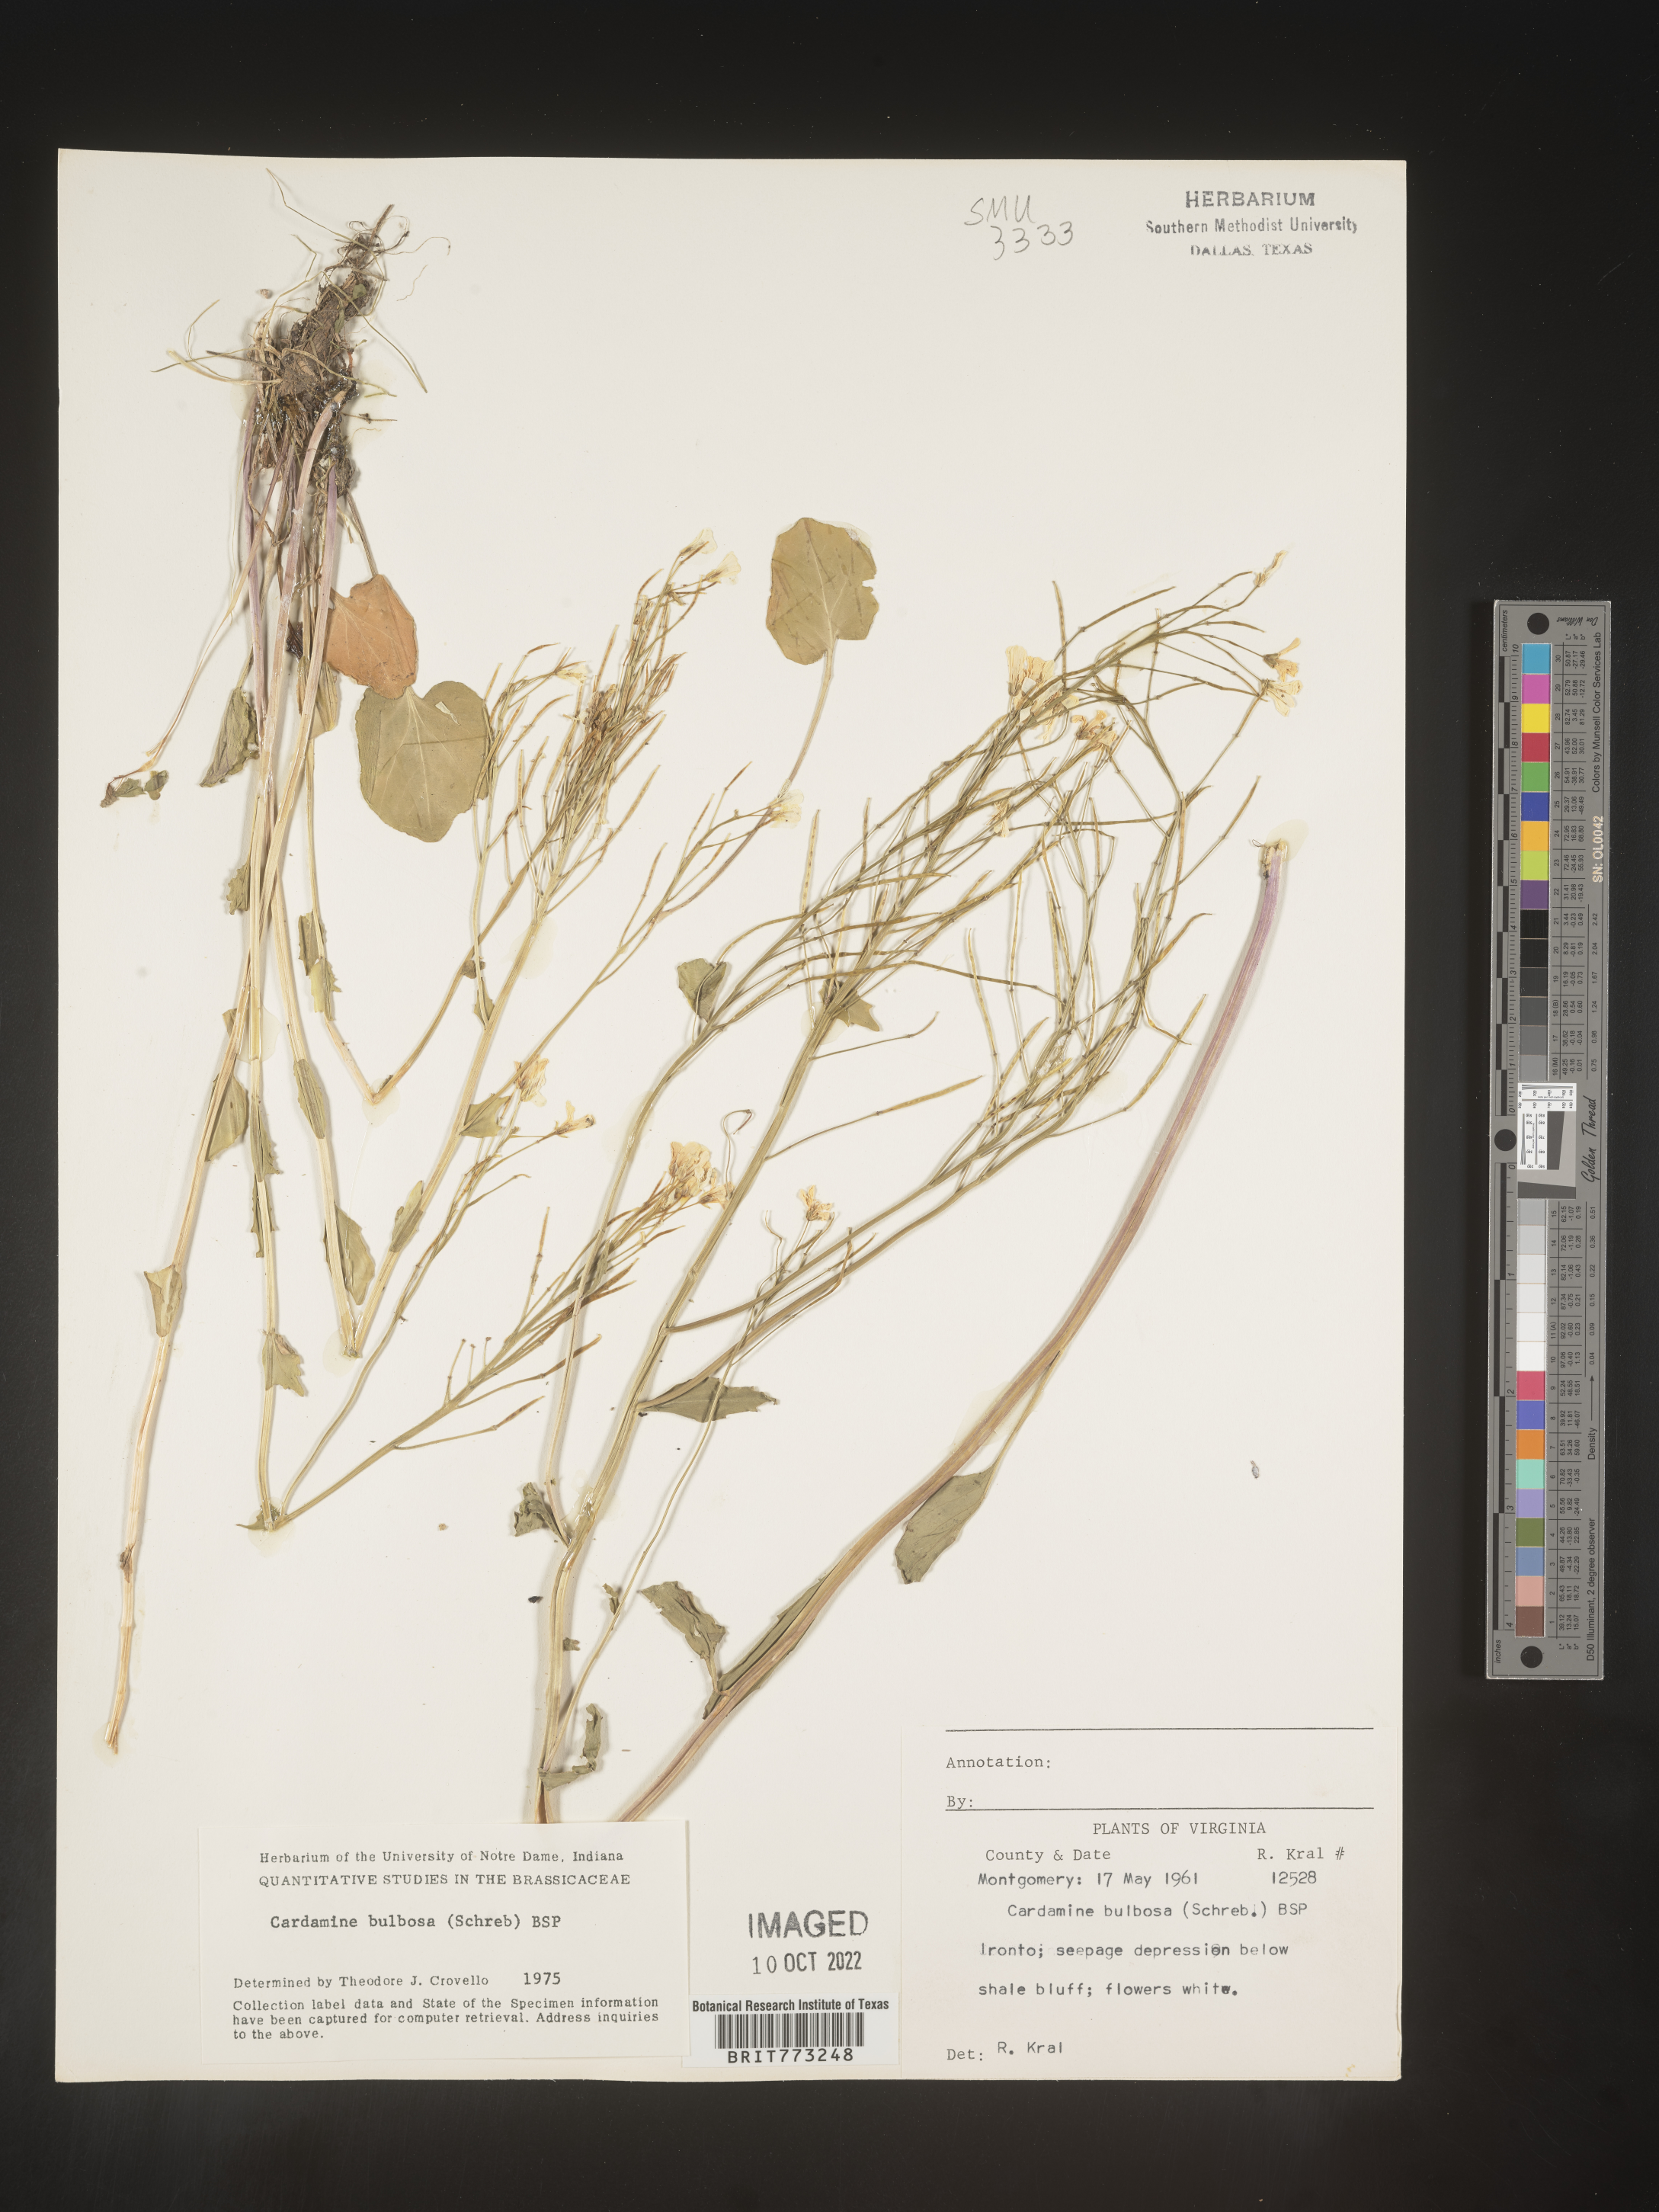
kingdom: Plantae
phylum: Tracheophyta
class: Magnoliopsida
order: Brassicales
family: Brassicaceae
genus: Cardamine
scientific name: Cardamine bulbosa
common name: Spring cress
